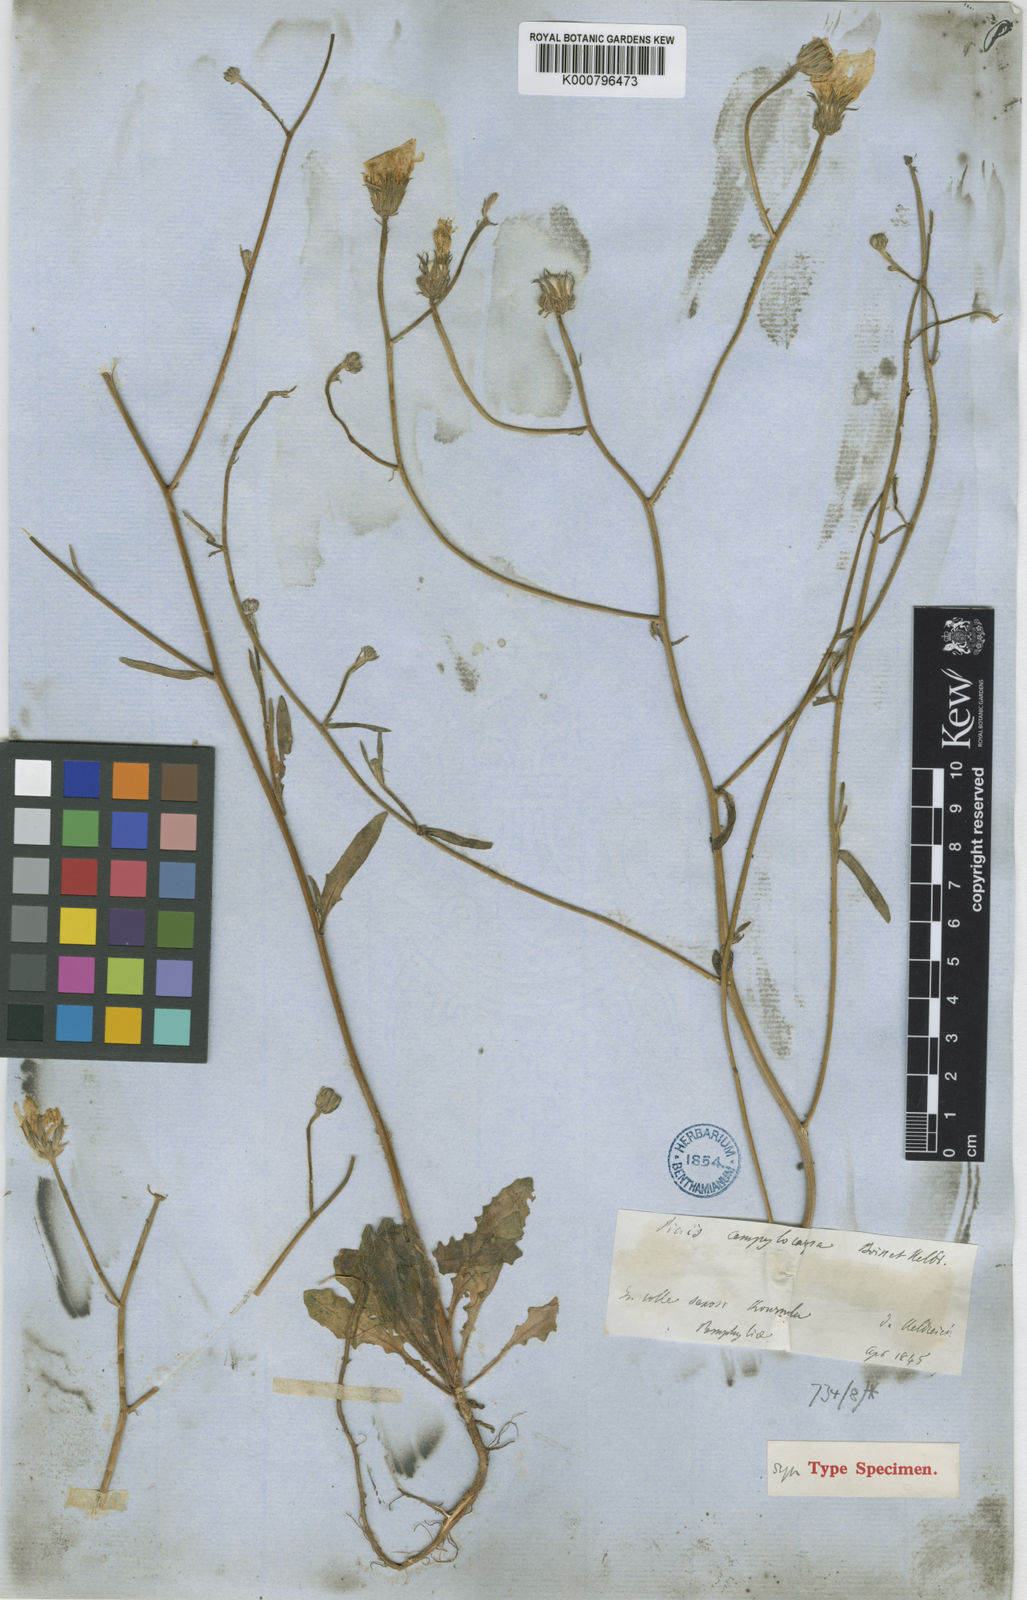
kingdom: Plantae
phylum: Tracheophyta
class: Magnoliopsida
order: Asterales
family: Asteraceae
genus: Picris
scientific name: Picris cyanocarpa
